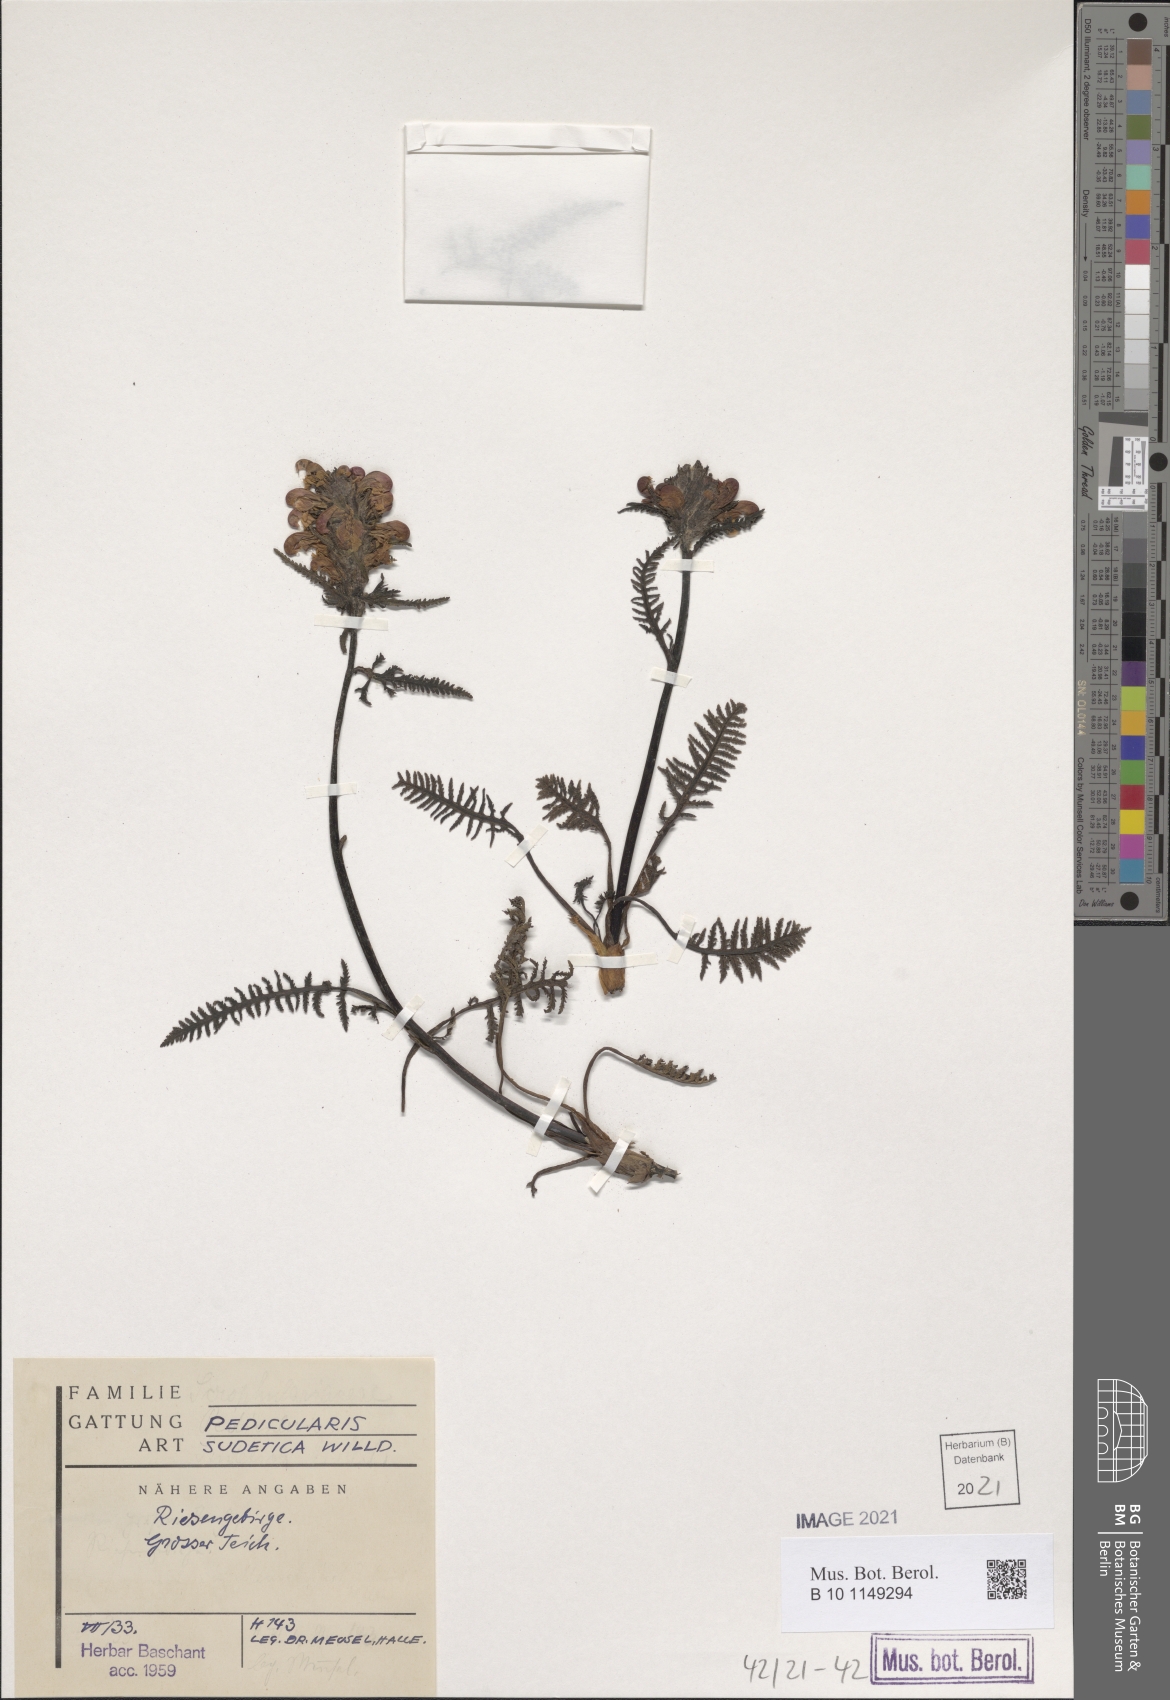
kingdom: Plantae
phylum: Tracheophyta
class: Magnoliopsida
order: Lamiales
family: Orobanchaceae
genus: Pedicularis
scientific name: Pedicularis sudetica
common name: Sudeten lousewort
